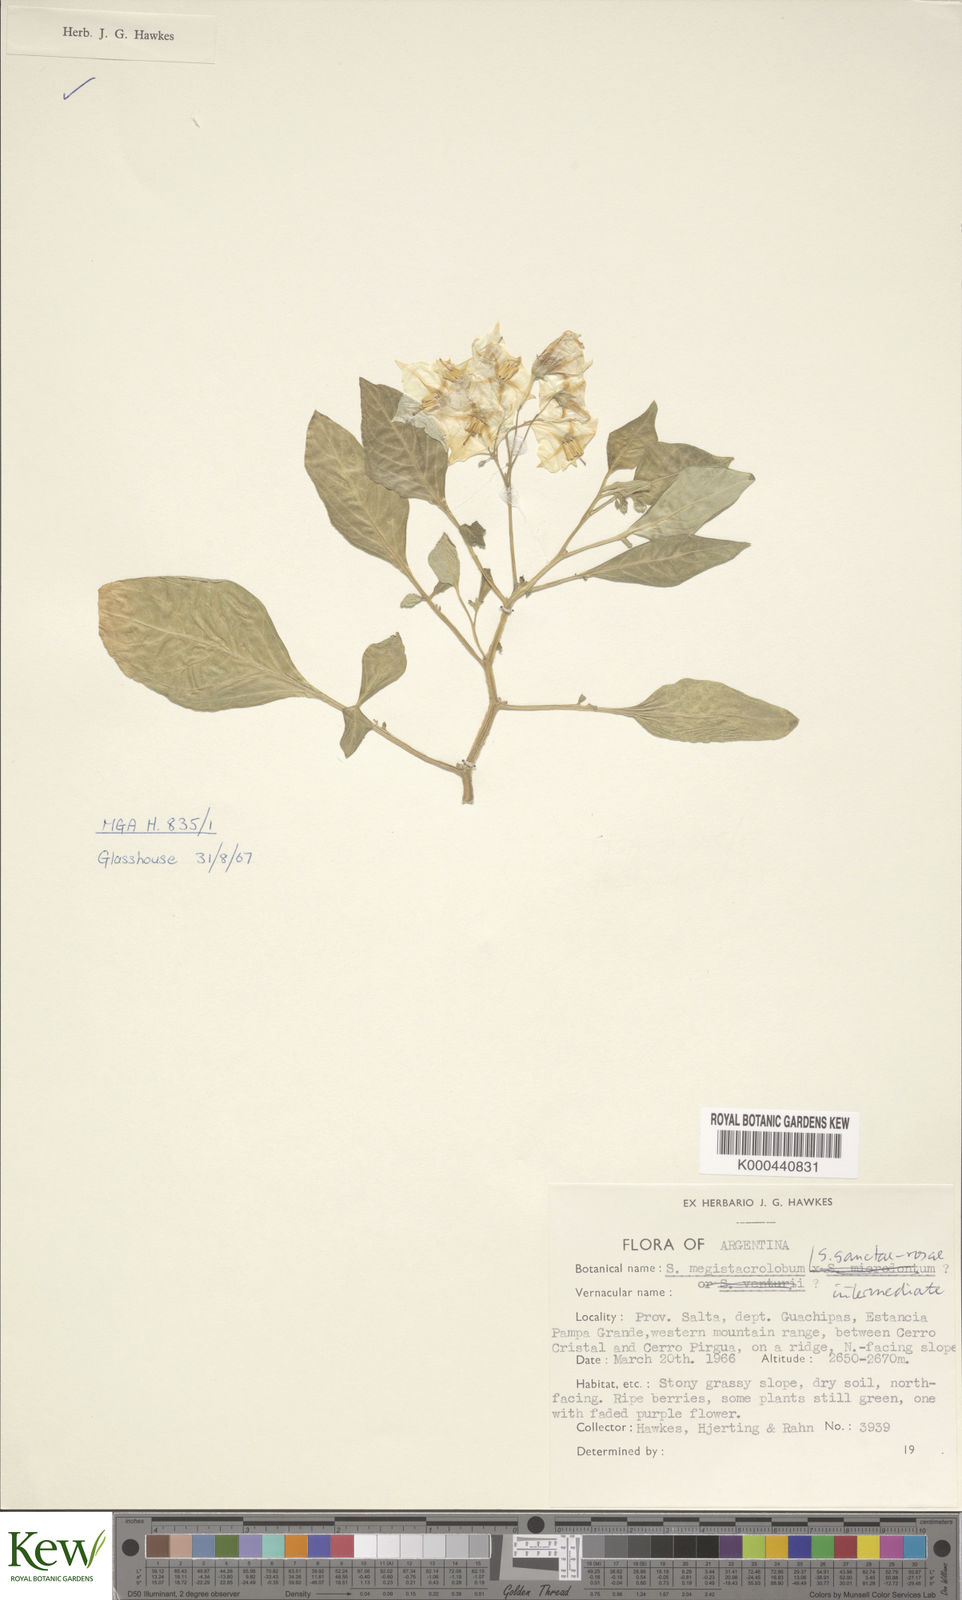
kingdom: Plantae
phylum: Tracheophyta
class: Magnoliopsida
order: Solanales
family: Solanaceae
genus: Solanum
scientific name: Solanum boliviense
